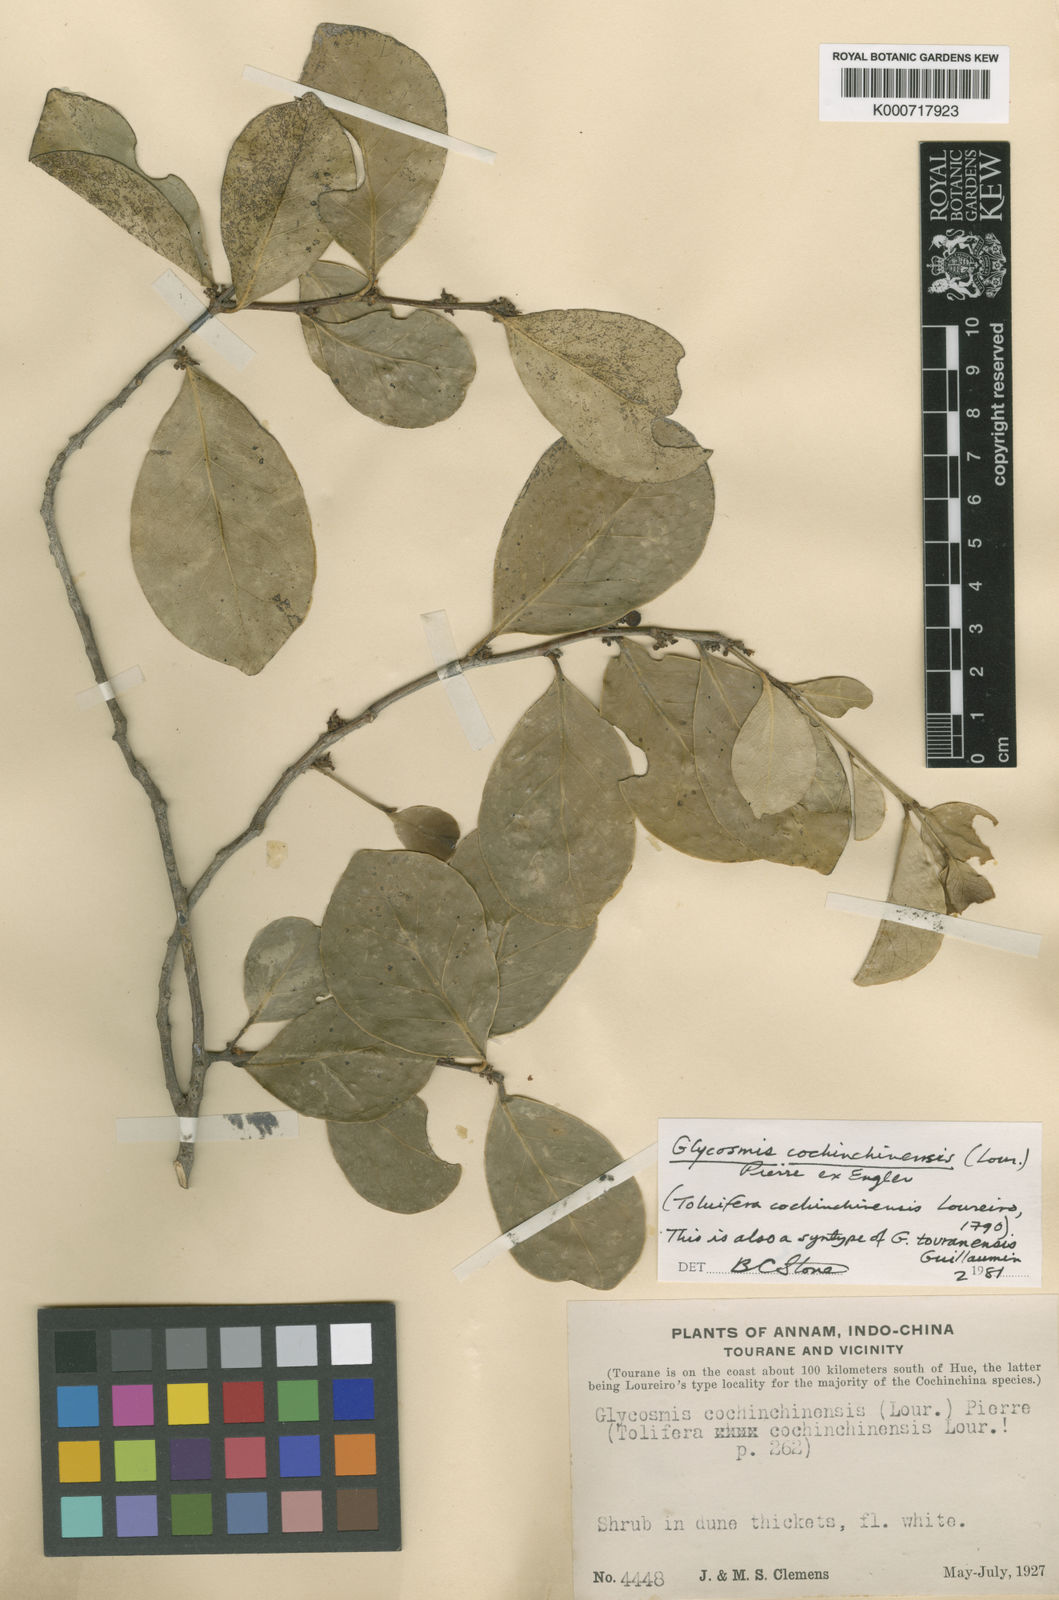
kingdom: Plantae
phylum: Tracheophyta
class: Magnoliopsida
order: Sapindales
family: Rutaceae
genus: Glycosmis
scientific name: Glycosmis
